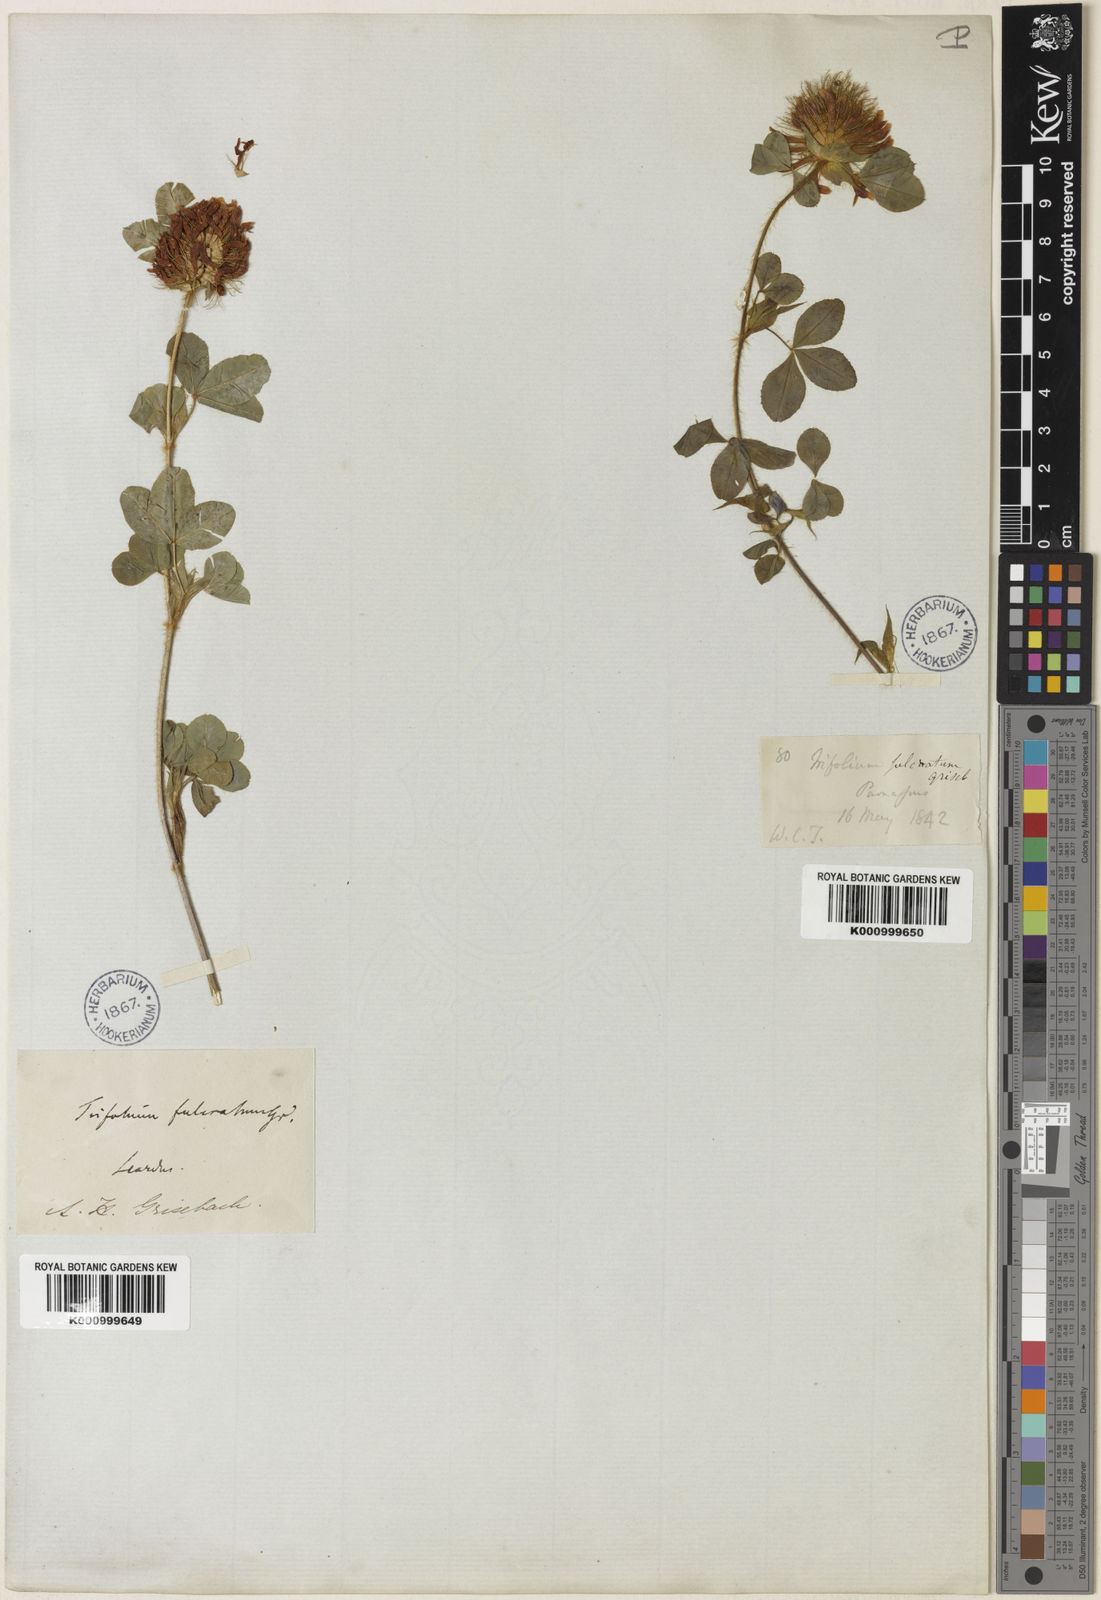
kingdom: Plantae
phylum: Tracheophyta
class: Magnoliopsida
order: Fabales
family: Fabaceae
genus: Trifolium
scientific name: Trifolium pignantii
